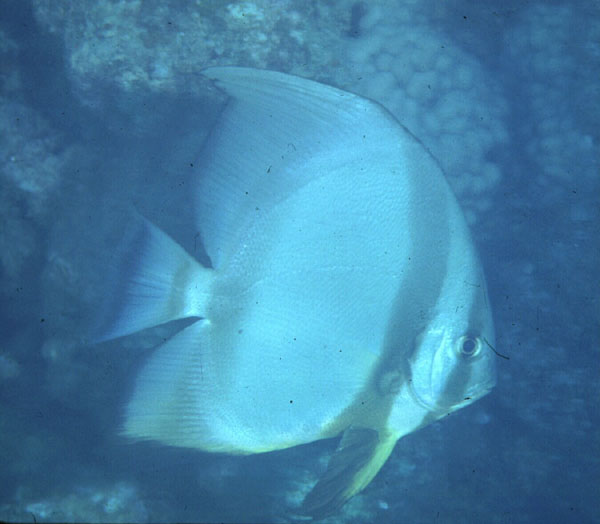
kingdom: Animalia
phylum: Chordata
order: Perciformes
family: Ephippidae
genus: Platax
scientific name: Platax orbicularis
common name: Batfish
